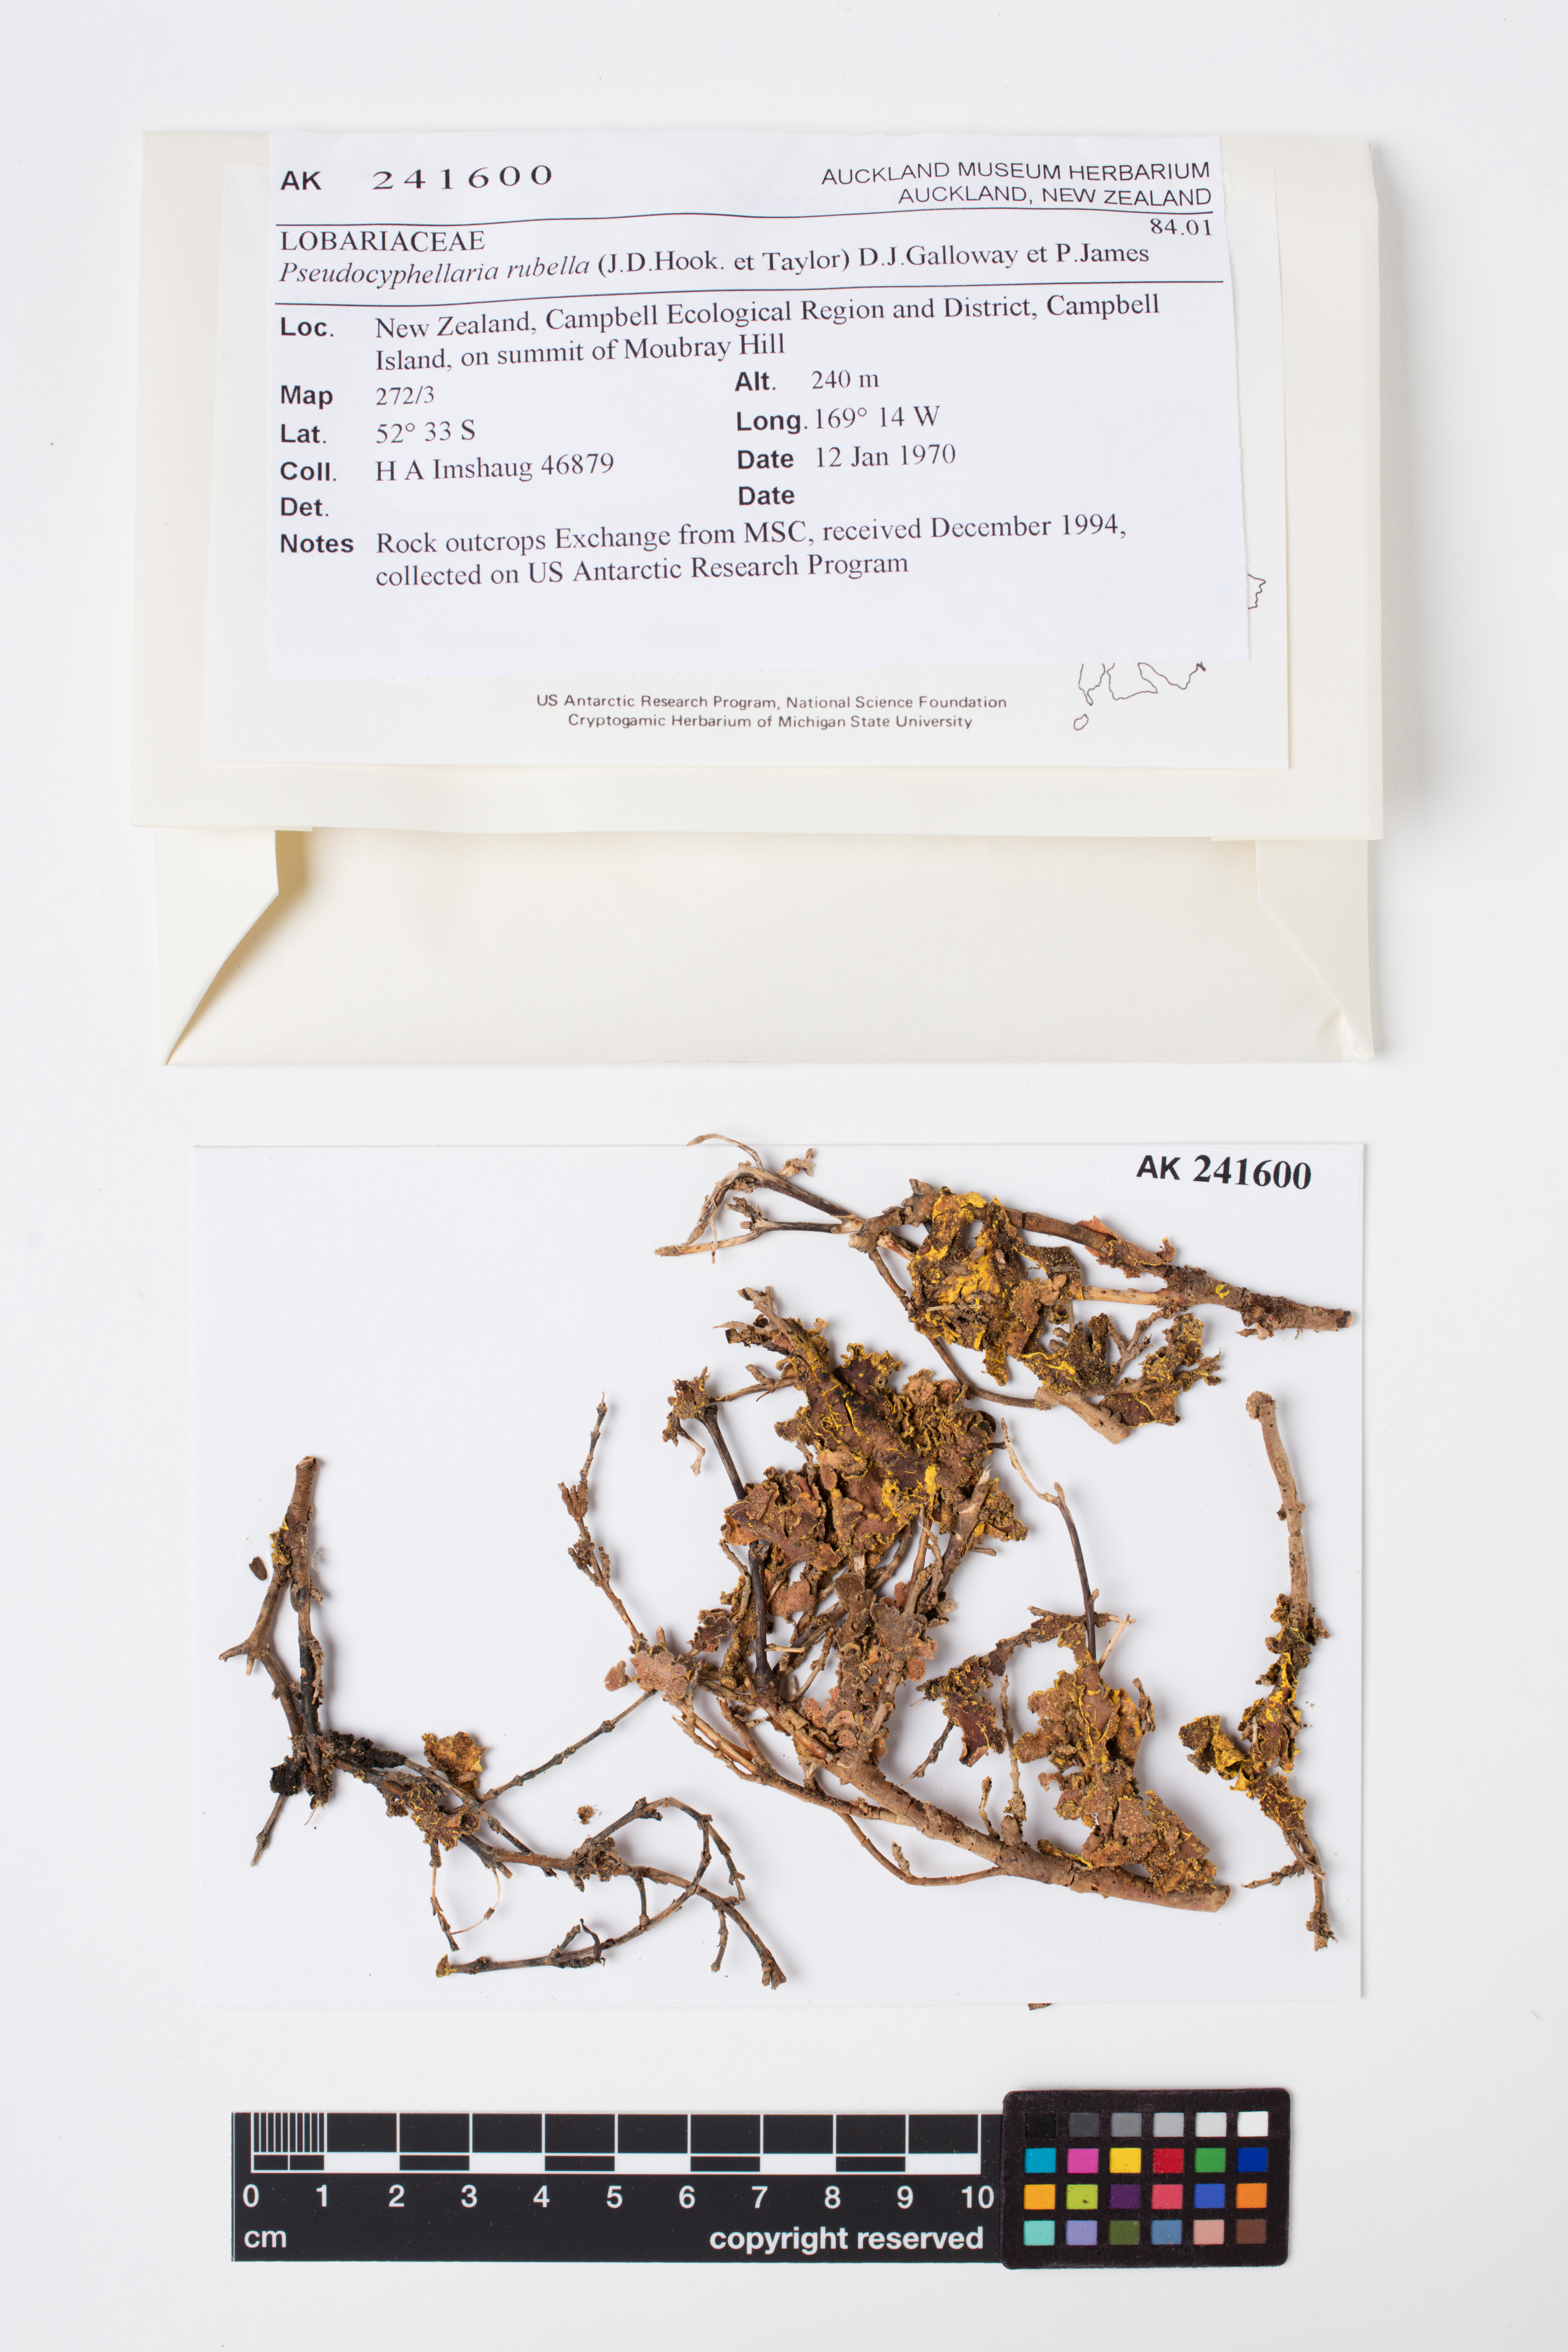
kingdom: Fungi
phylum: Ascomycota
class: Lecanoromycetes
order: Peltigerales
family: Lobariaceae
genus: Pseudocyphellaria
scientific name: Pseudocyphellaria rubella
